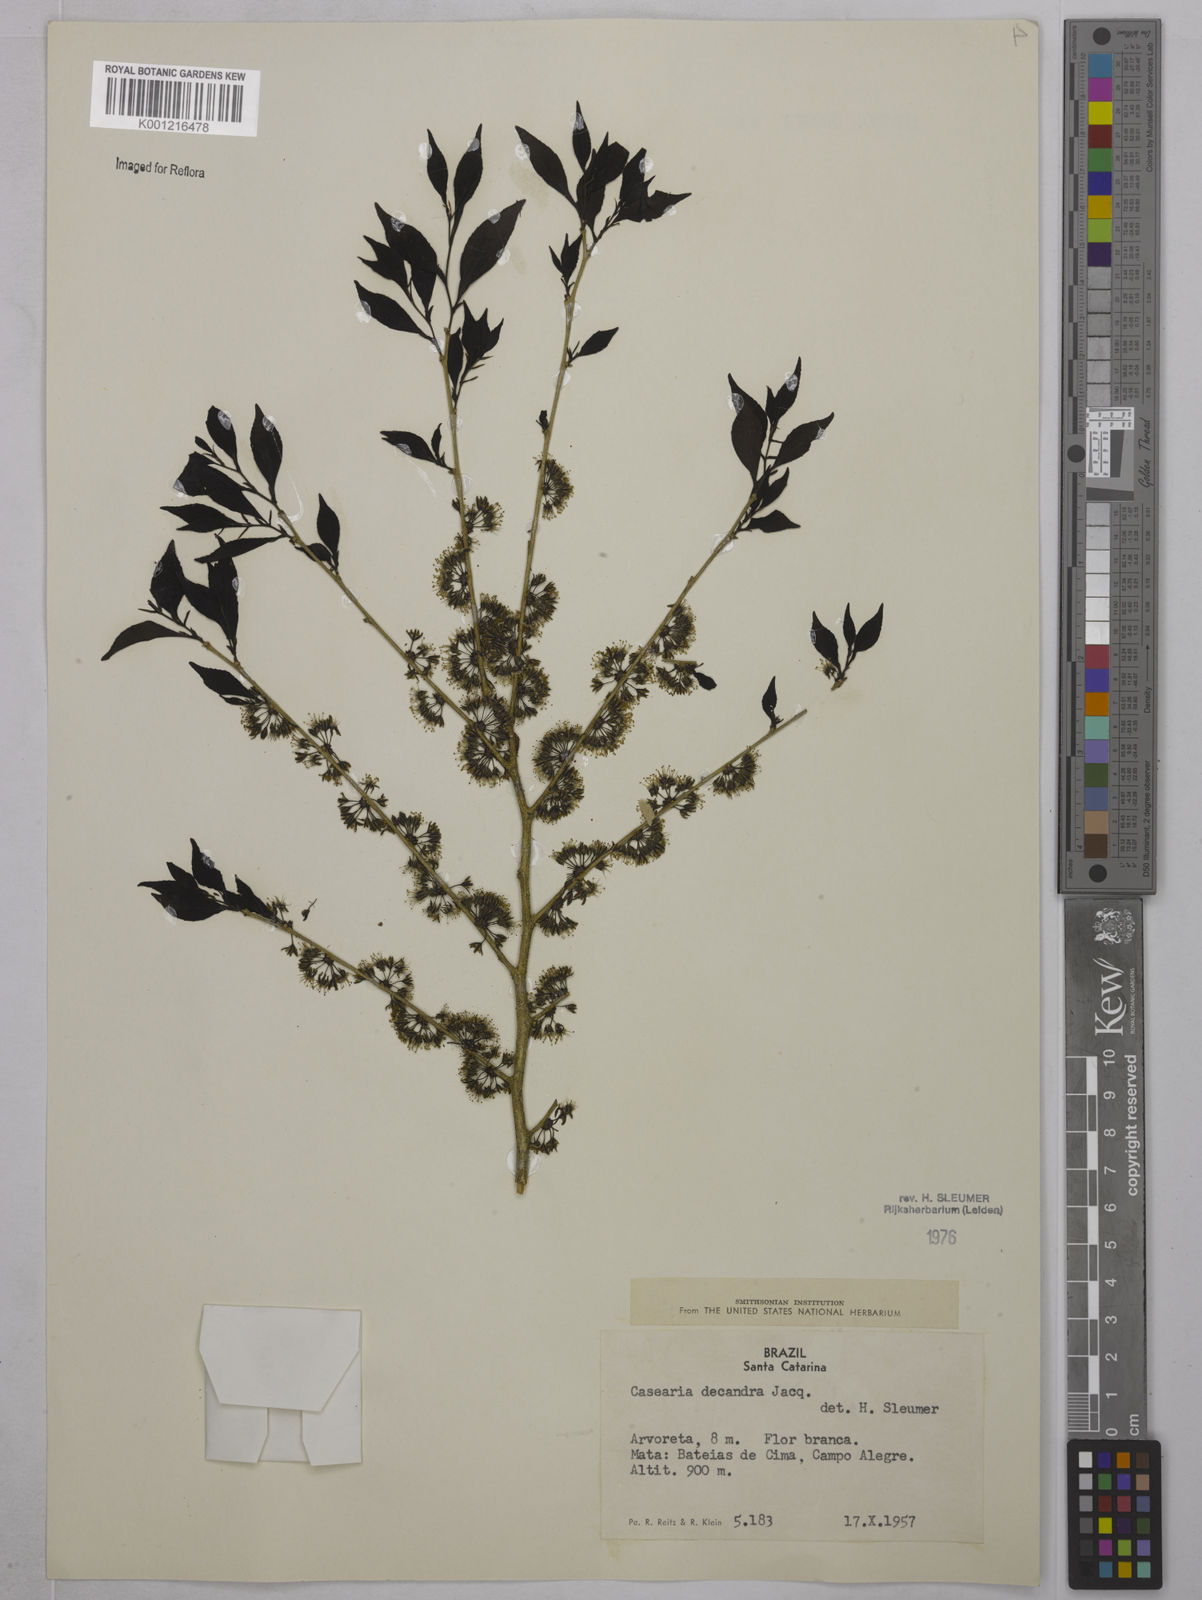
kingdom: Plantae
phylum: Tracheophyta
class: Magnoliopsida
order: Malpighiales
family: Salicaceae
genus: Casearia
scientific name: Casearia decandra
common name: Crack open
